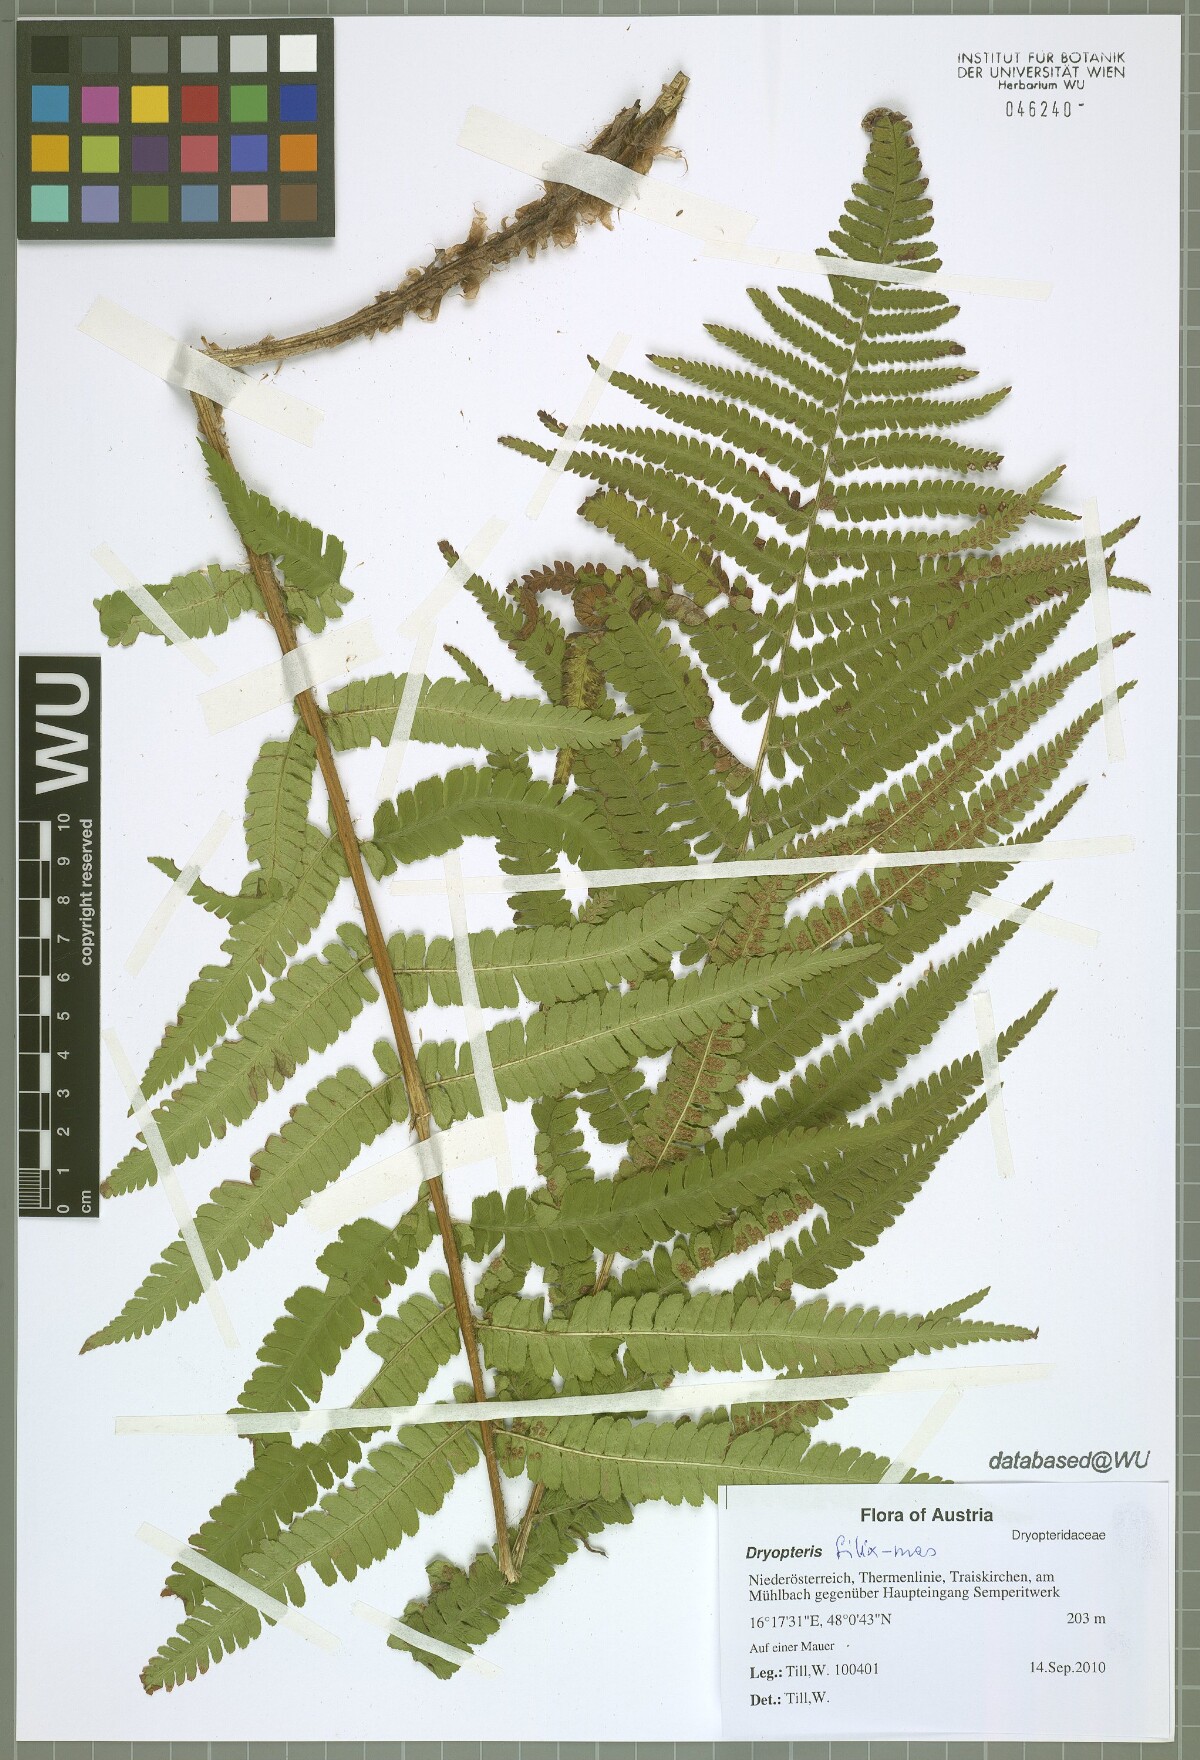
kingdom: Plantae
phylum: Tracheophyta
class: Polypodiopsida
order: Polypodiales
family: Dryopteridaceae
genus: Dryopteris
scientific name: Dryopteris filix-mas
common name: Male fern
